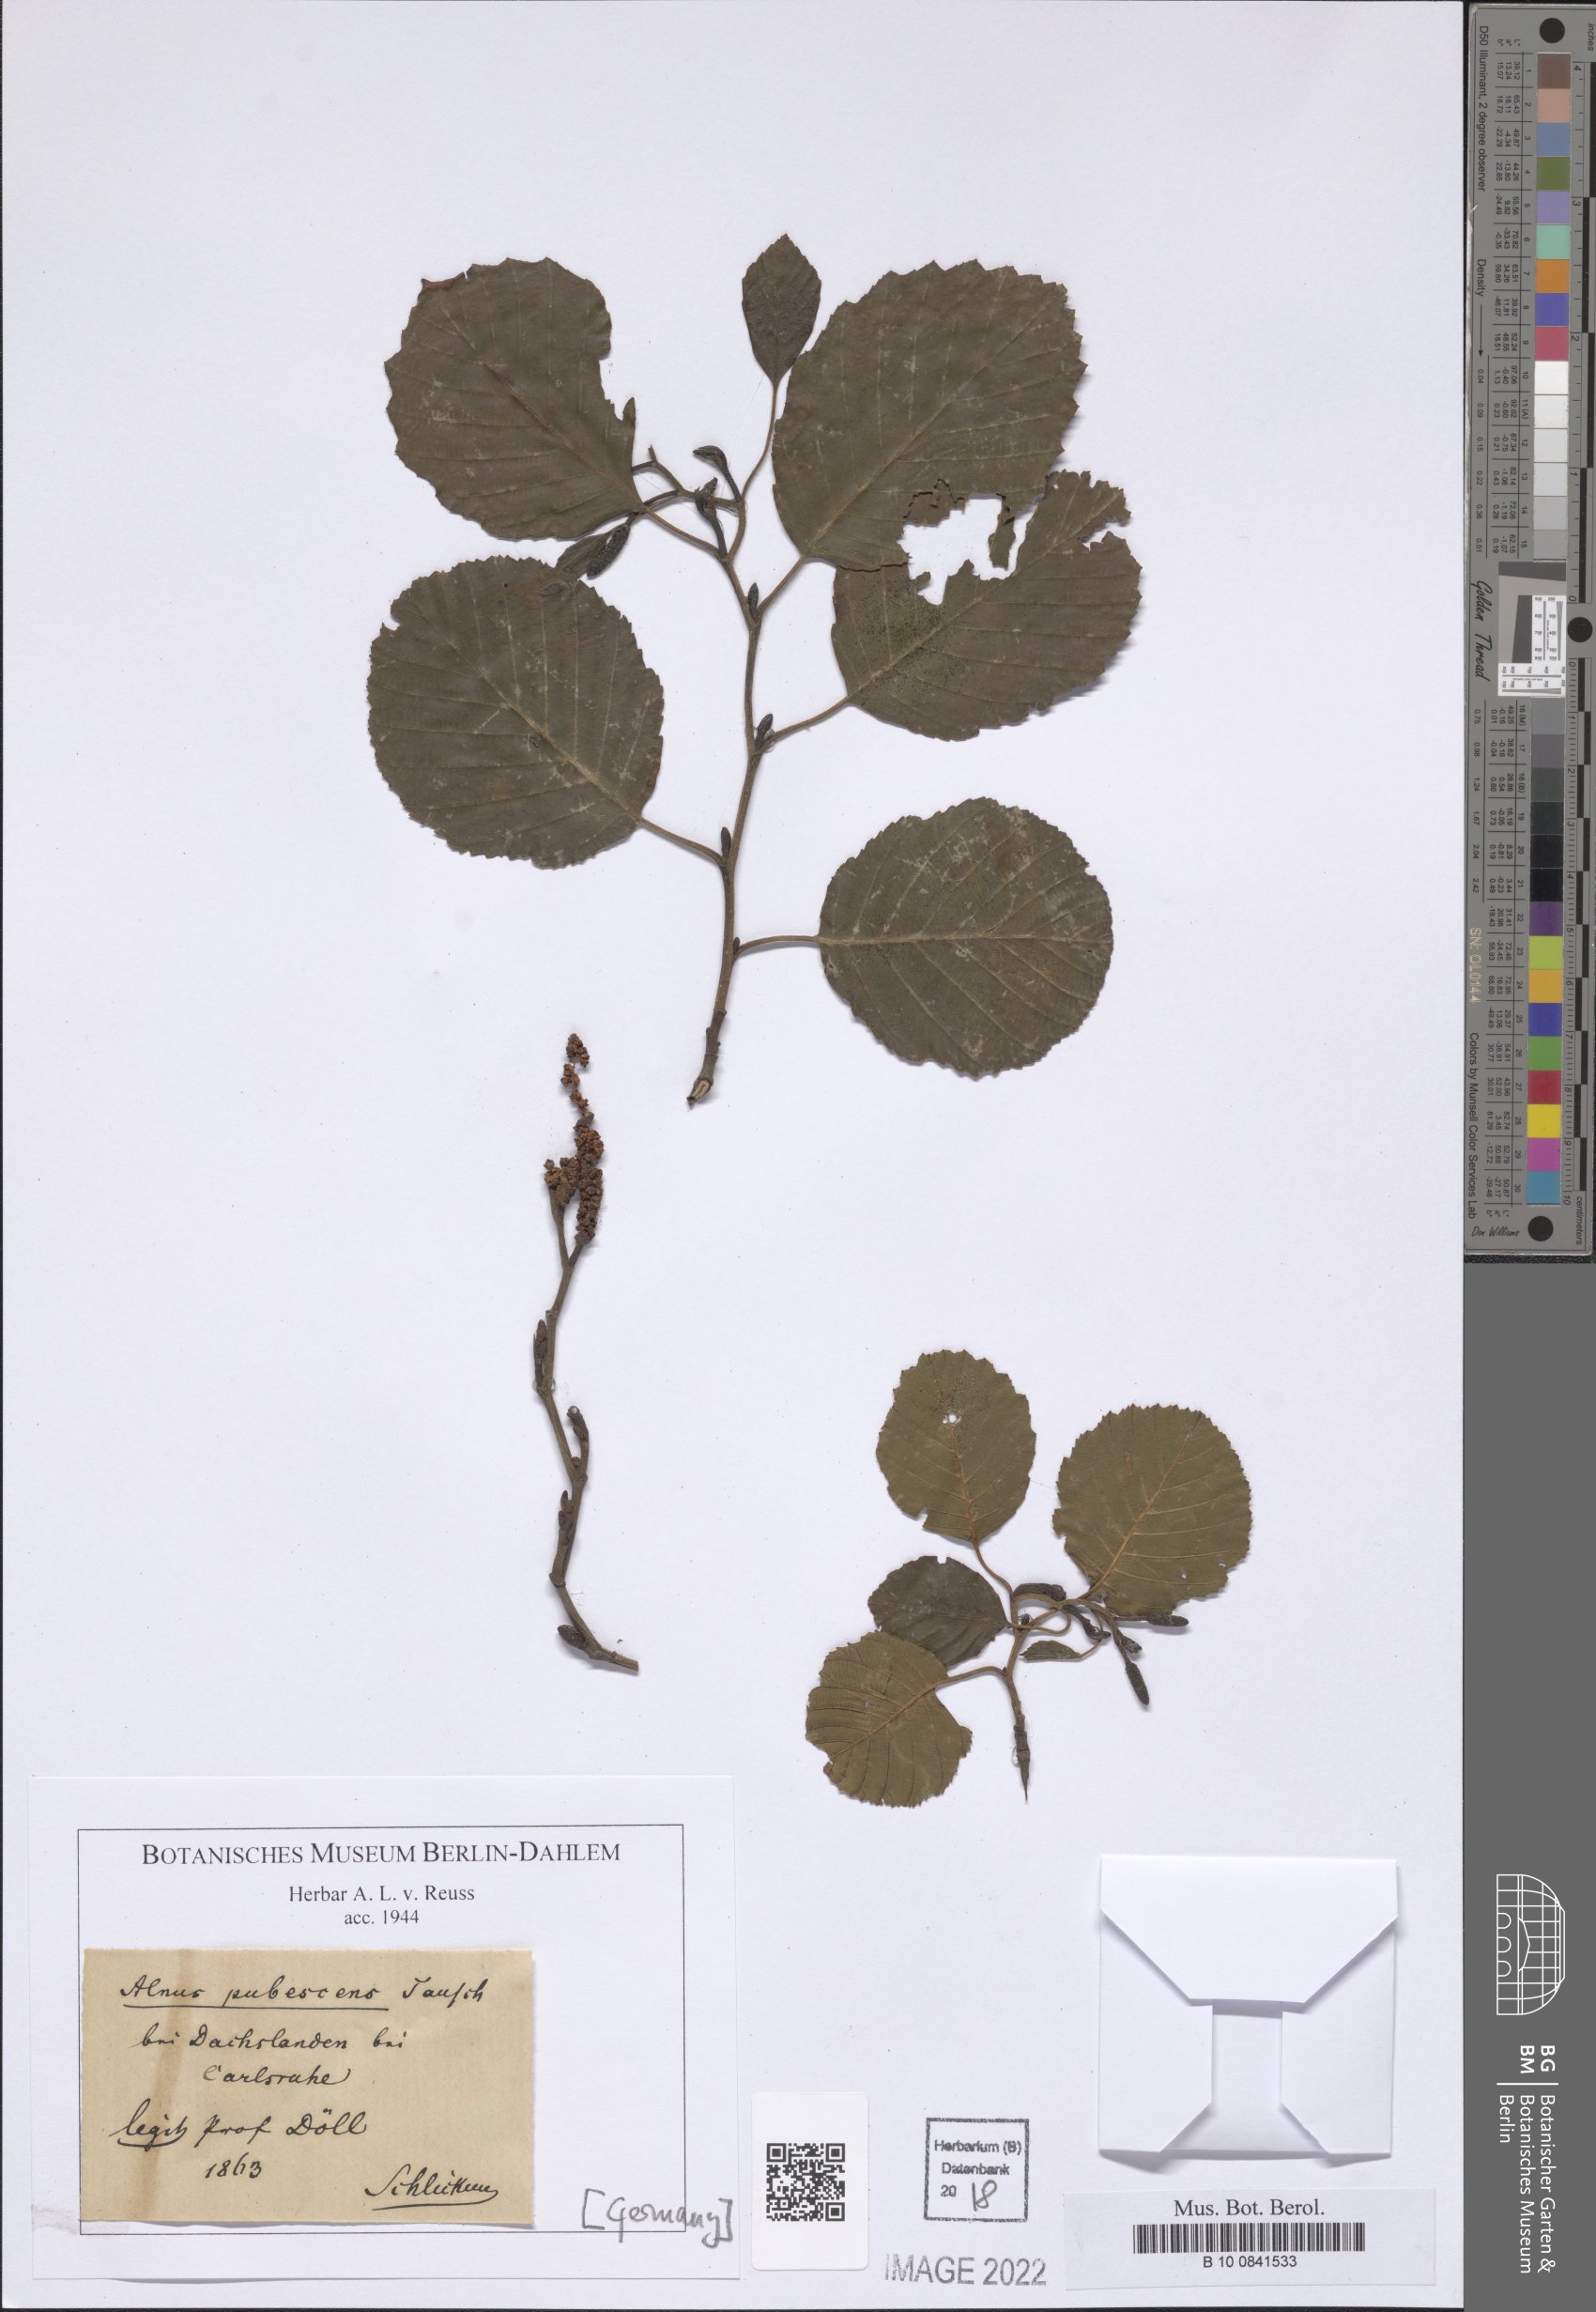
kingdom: Plantae
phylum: Tracheophyta
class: Magnoliopsida
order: Fagales
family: Betulaceae
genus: Alnus
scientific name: Alnus pubescens
